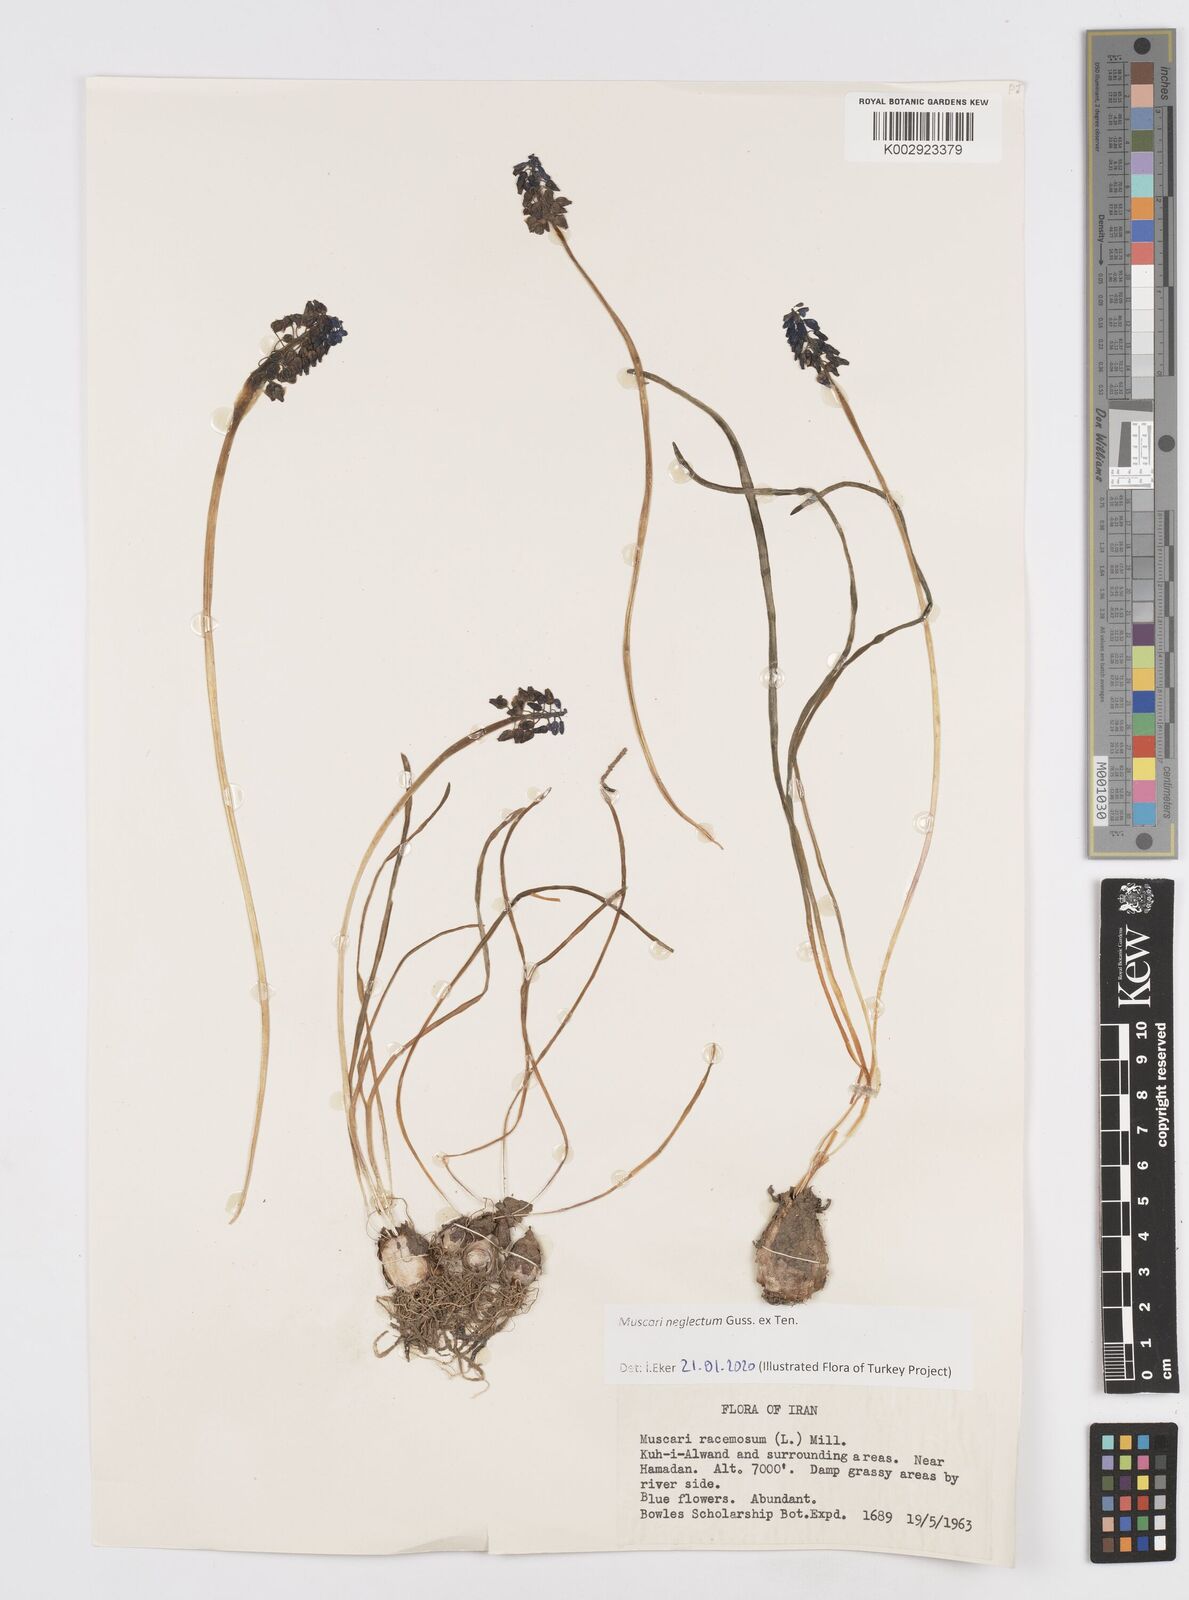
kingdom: Plantae
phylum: Tracheophyta
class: Liliopsida
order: Asparagales
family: Asparagaceae
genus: Muscari
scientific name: Muscari neglectum
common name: Grape-hyacinth
